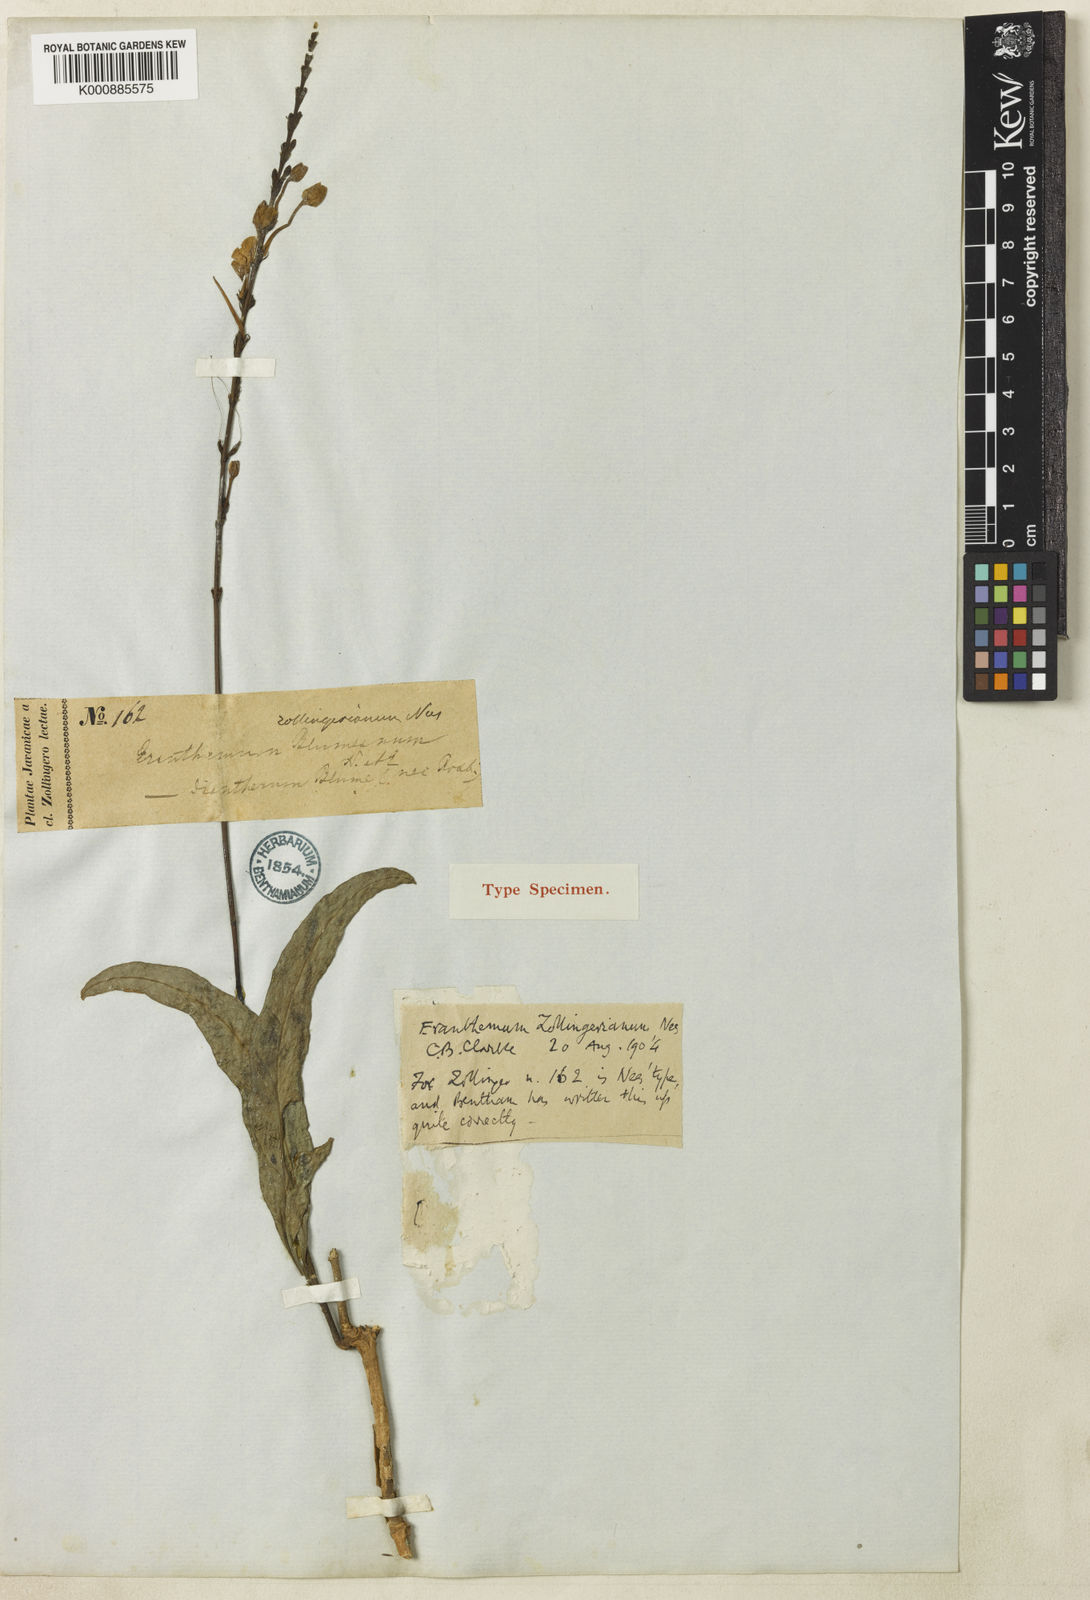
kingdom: Plantae
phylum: Tracheophyta
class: Magnoliopsida
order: Lamiales
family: Acanthaceae
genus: Pseuderanthemum
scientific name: Pseuderanthemum
